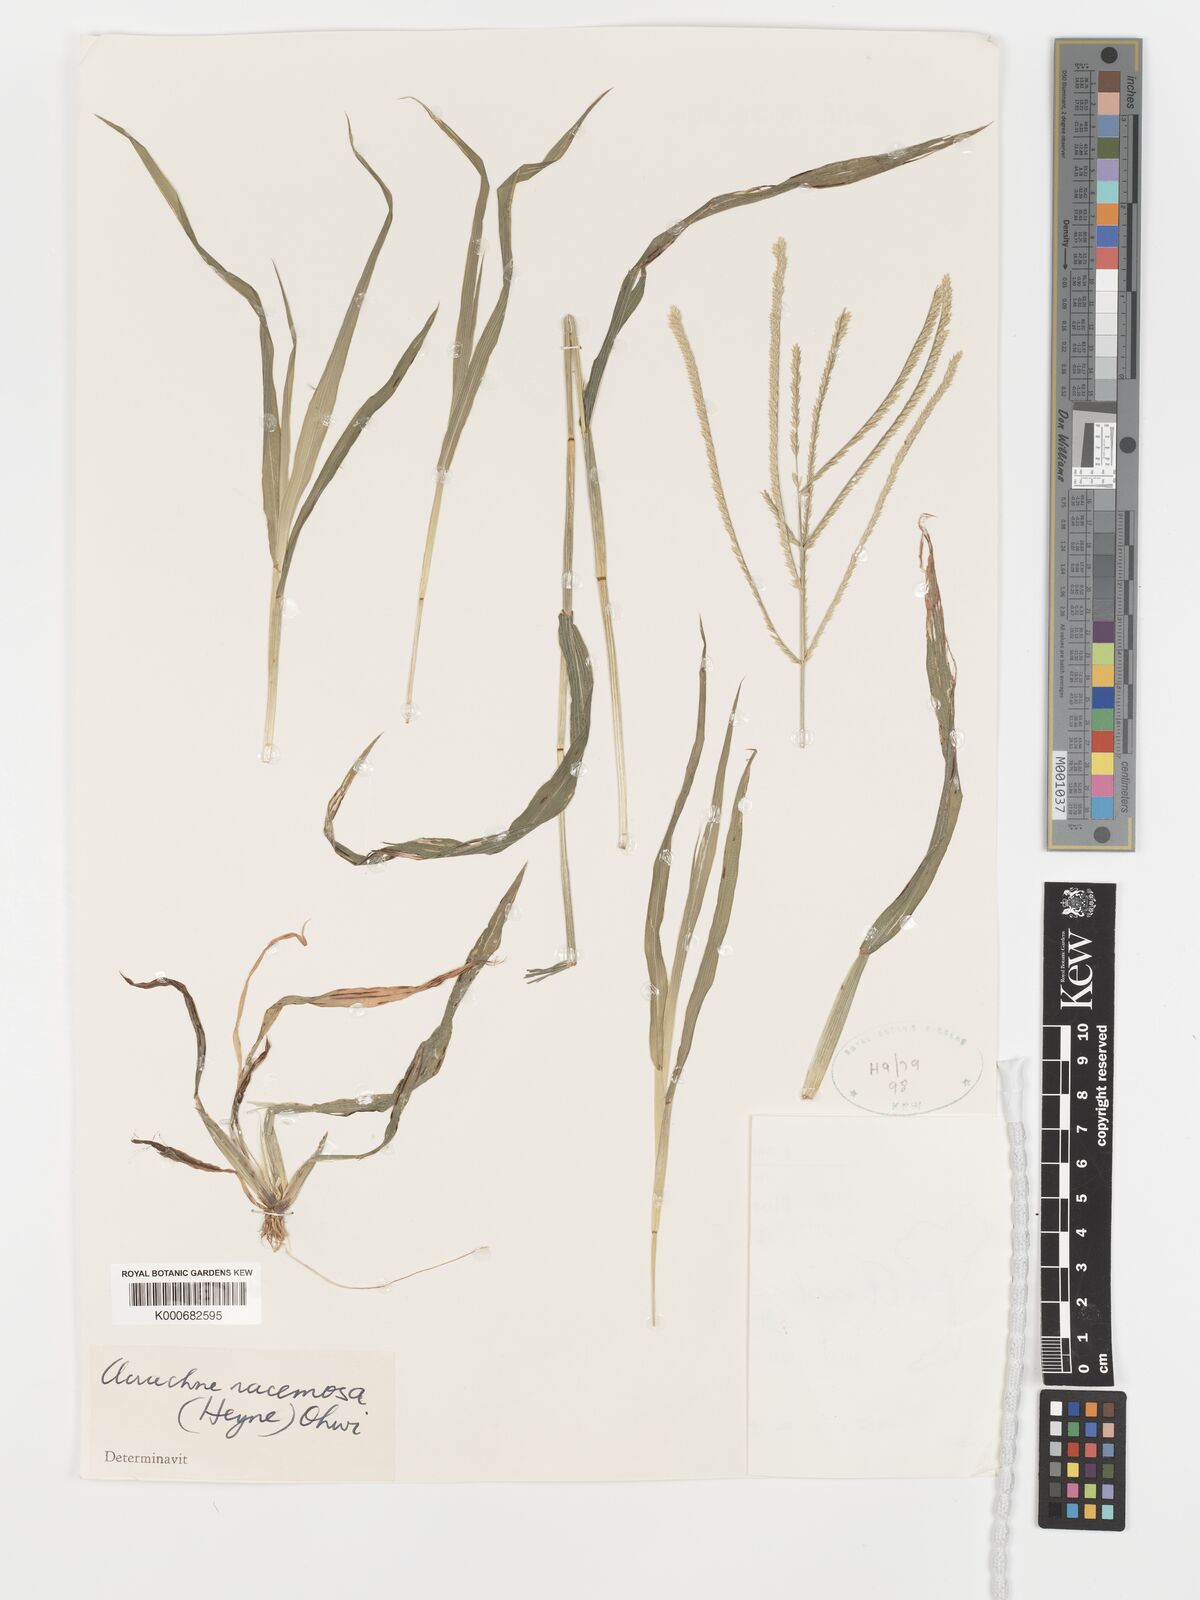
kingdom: Plantae
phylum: Tracheophyta
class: Liliopsida
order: Poales
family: Poaceae
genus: Acrachne
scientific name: Acrachne racemosa
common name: Goosegrass
